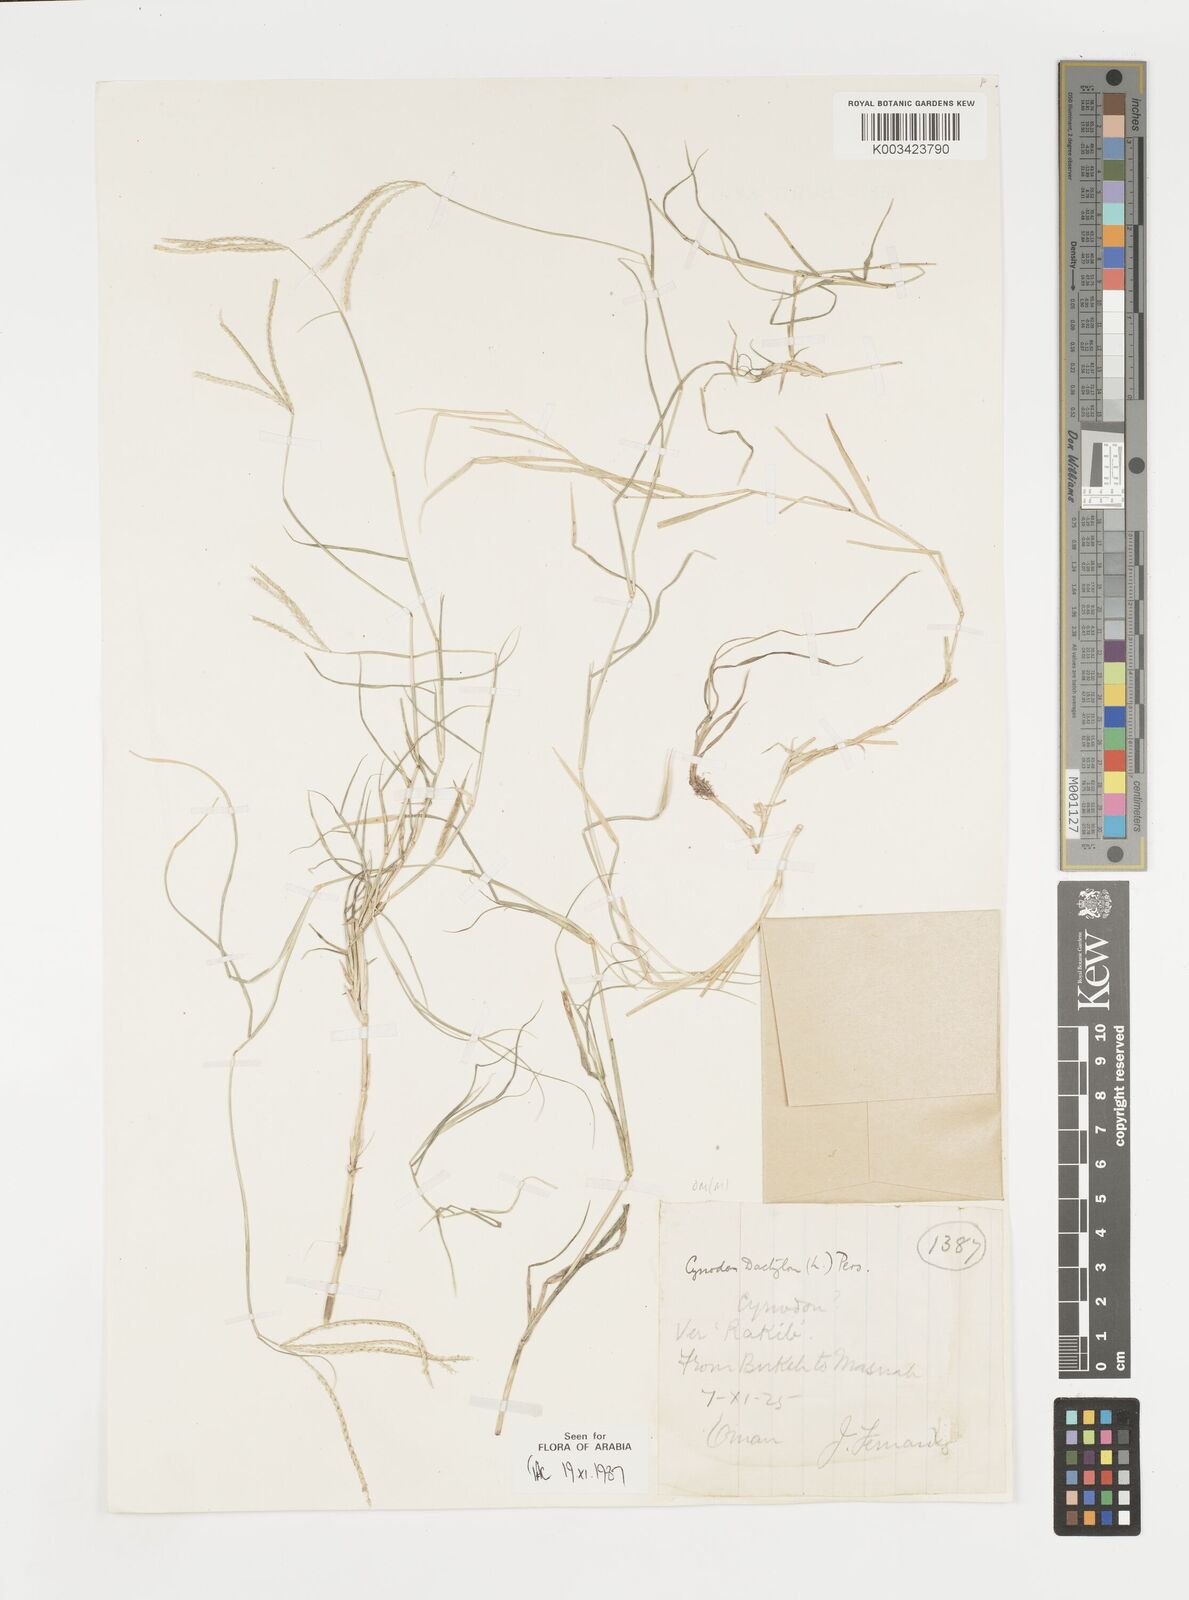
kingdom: Plantae
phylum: Tracheophyta
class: Liliopsida
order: Poales
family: Poaceae
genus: Cynodon
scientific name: Cynodon dactylon
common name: Bermuda grass
